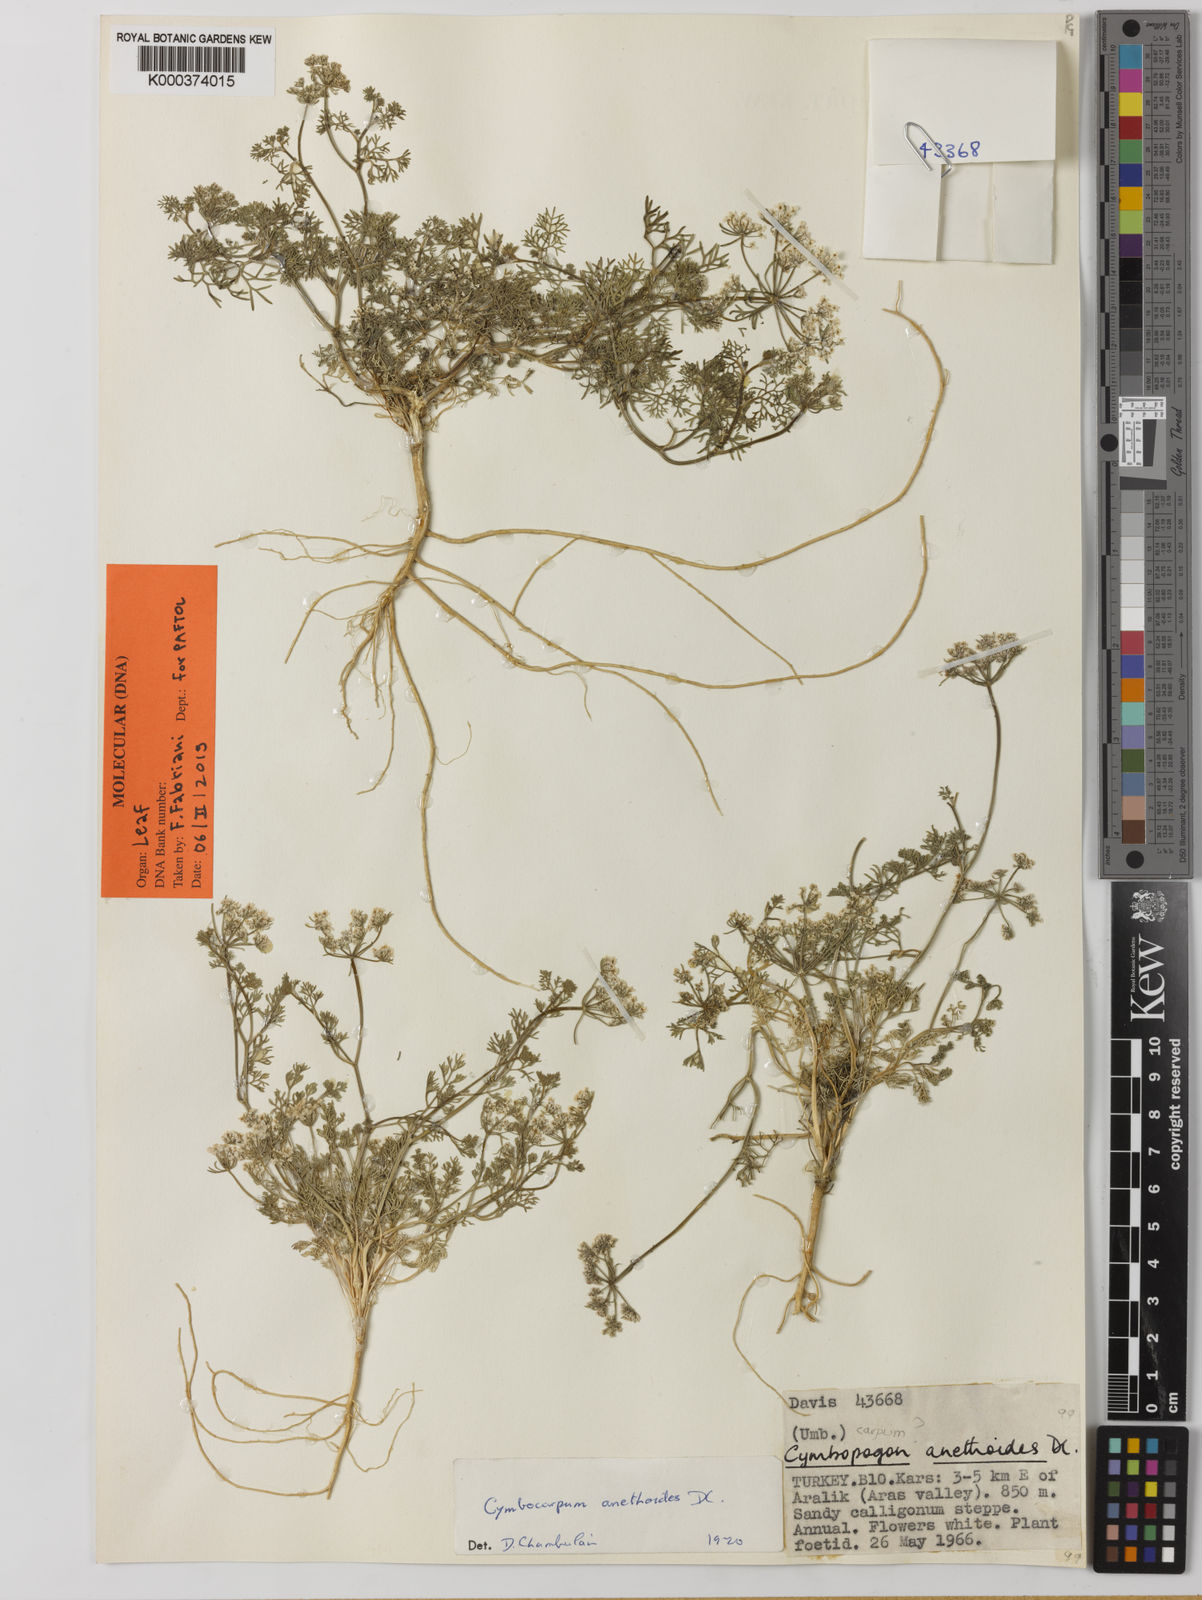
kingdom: Plantae
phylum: Tracheophyta
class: Magnoliopsida
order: Apiales
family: Apiaceae
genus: Cymbocarpum
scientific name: Cymbocarpum
